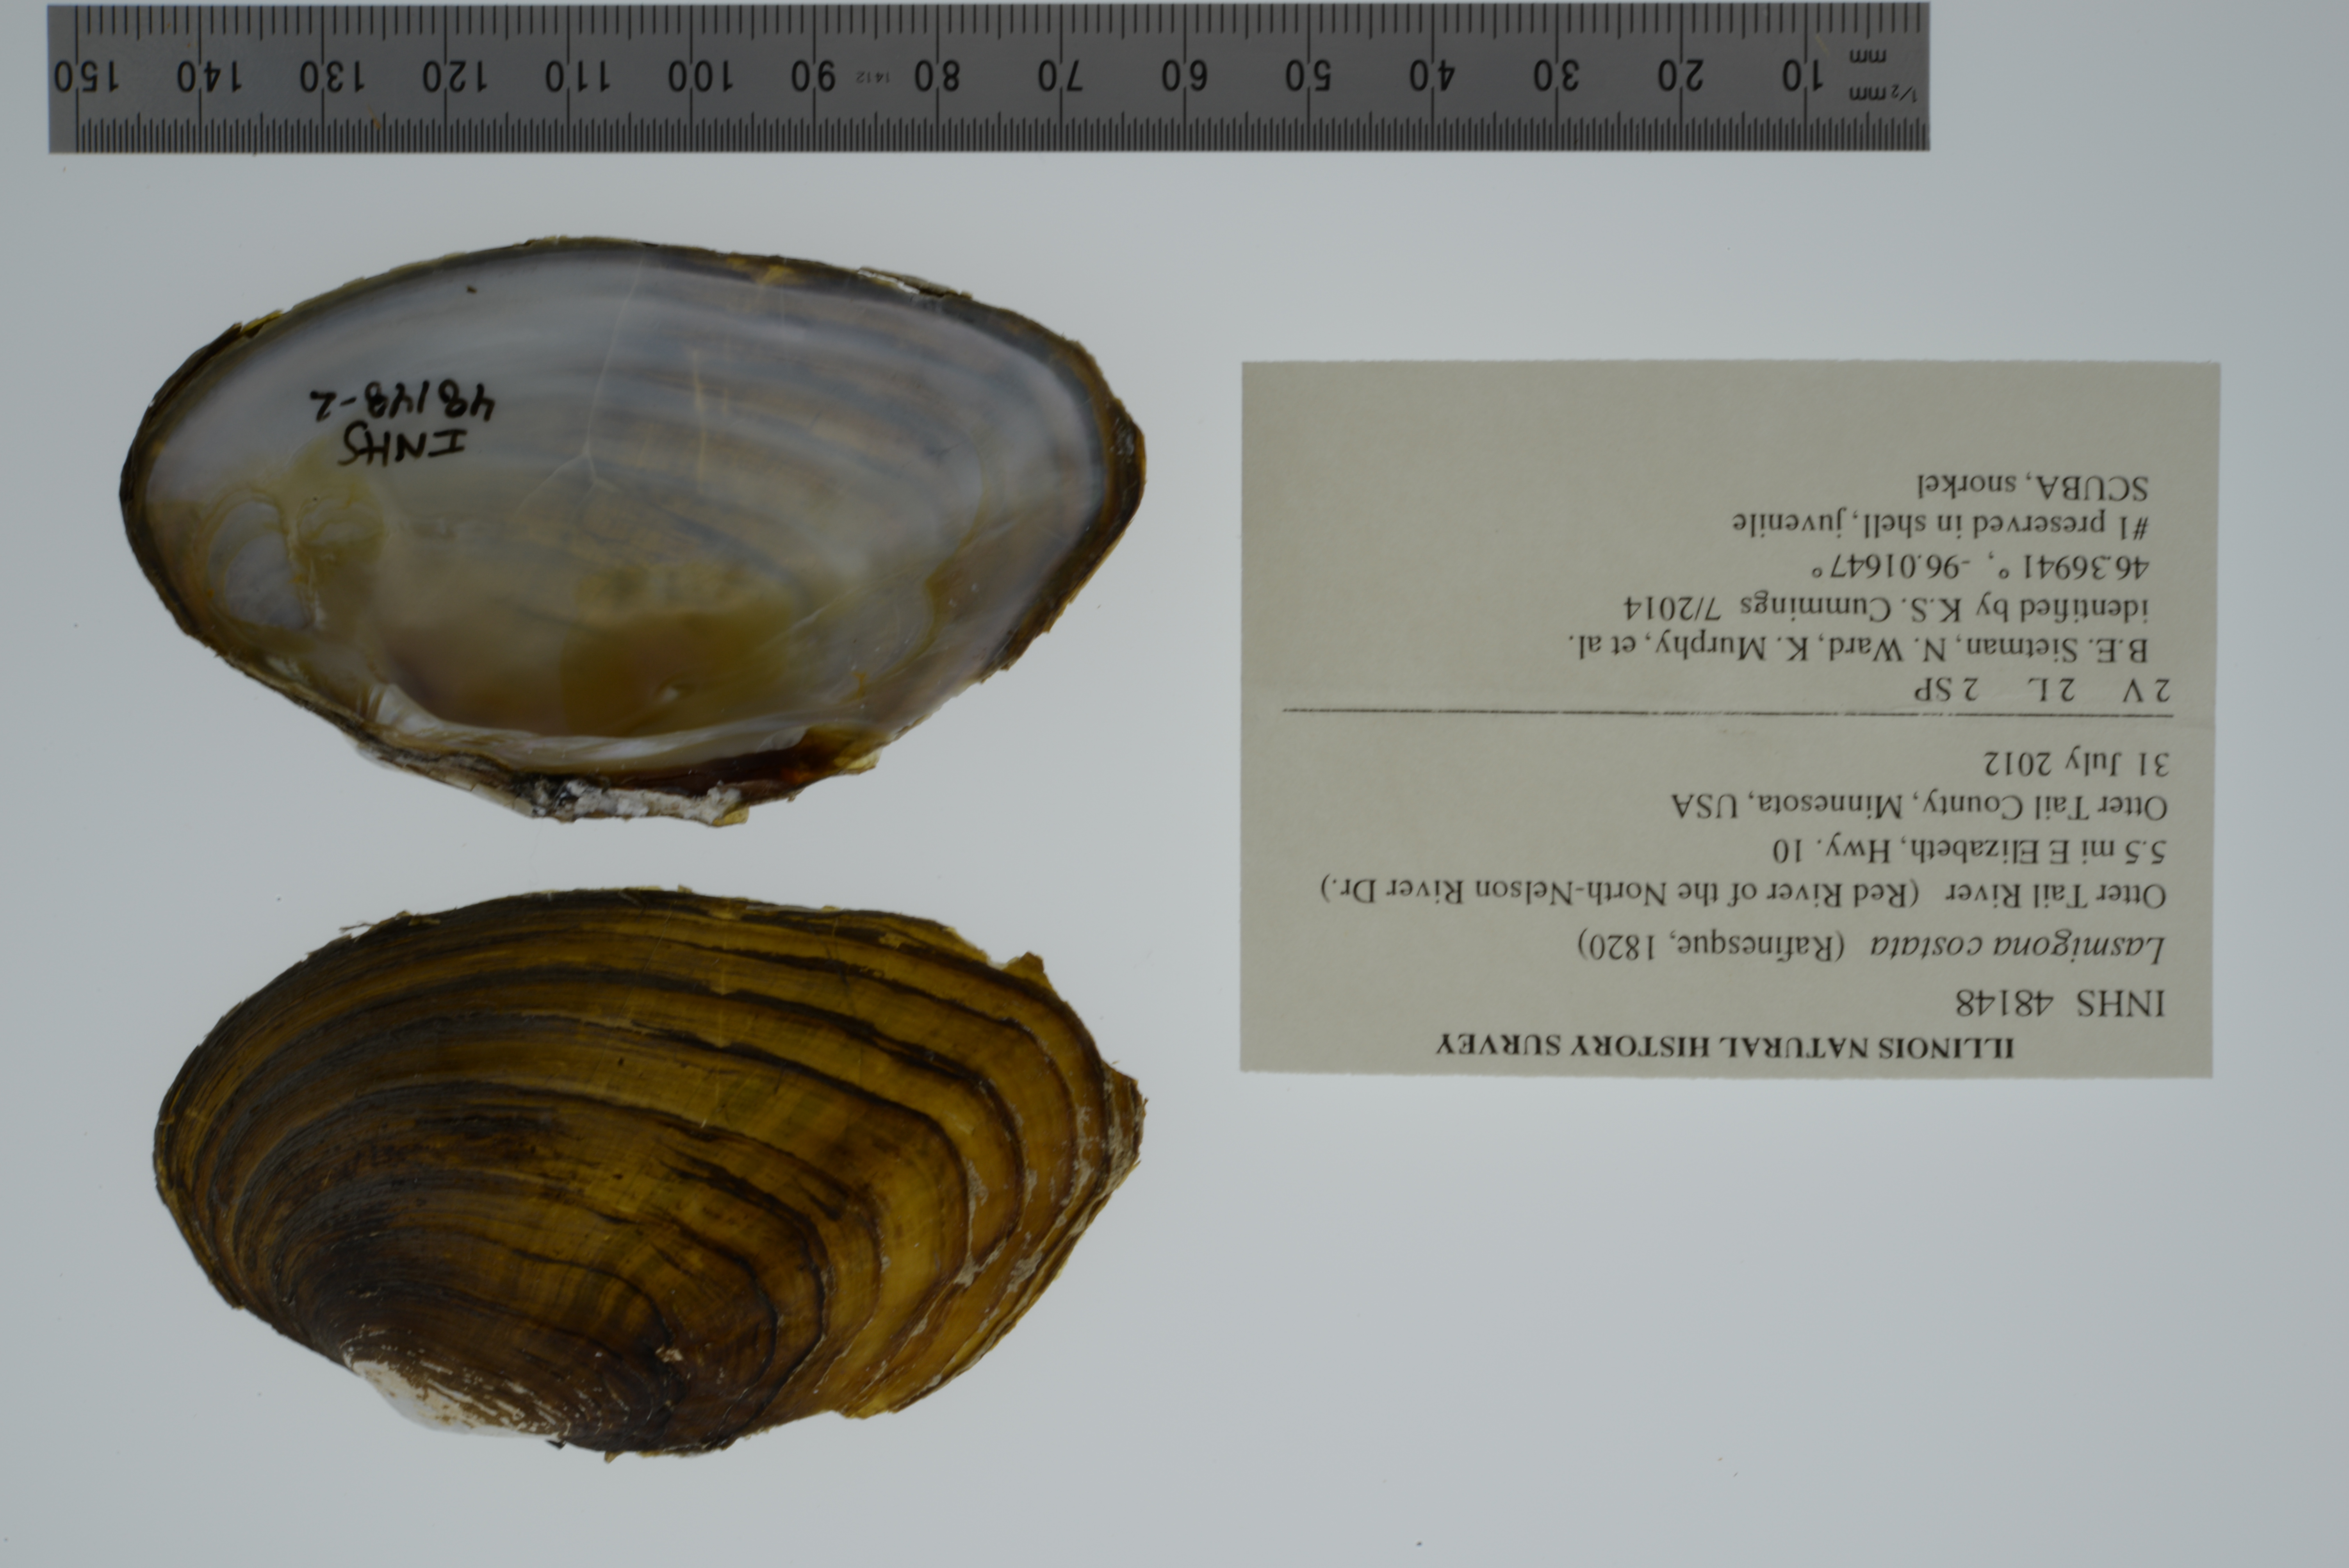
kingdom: Animalia
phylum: Mollusca
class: Bivalvia
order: Unionida
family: Unionidae
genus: Lasmigona
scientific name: Lasmigona costata
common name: Flutedshell
